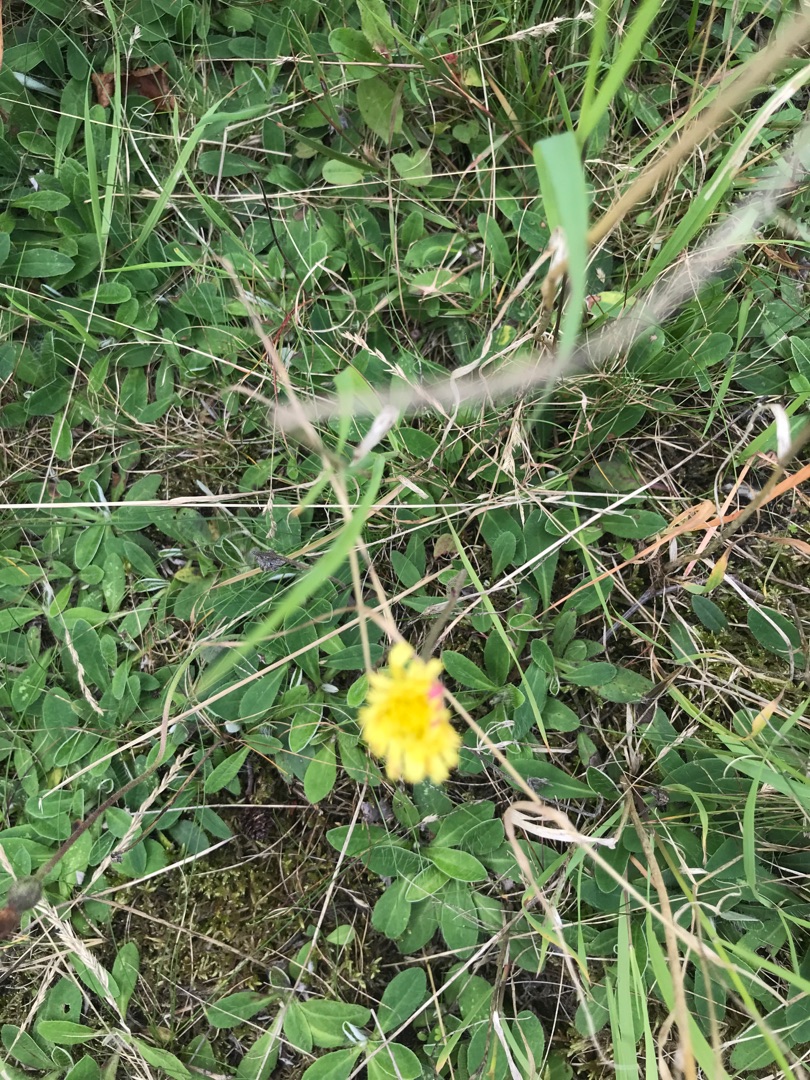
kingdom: Plantae
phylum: Tracheophyta
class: Magnoliopsida
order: Asterales
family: Asteraceae
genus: Pilosella
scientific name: Pilosella officinarum
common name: Håret høgeurt
